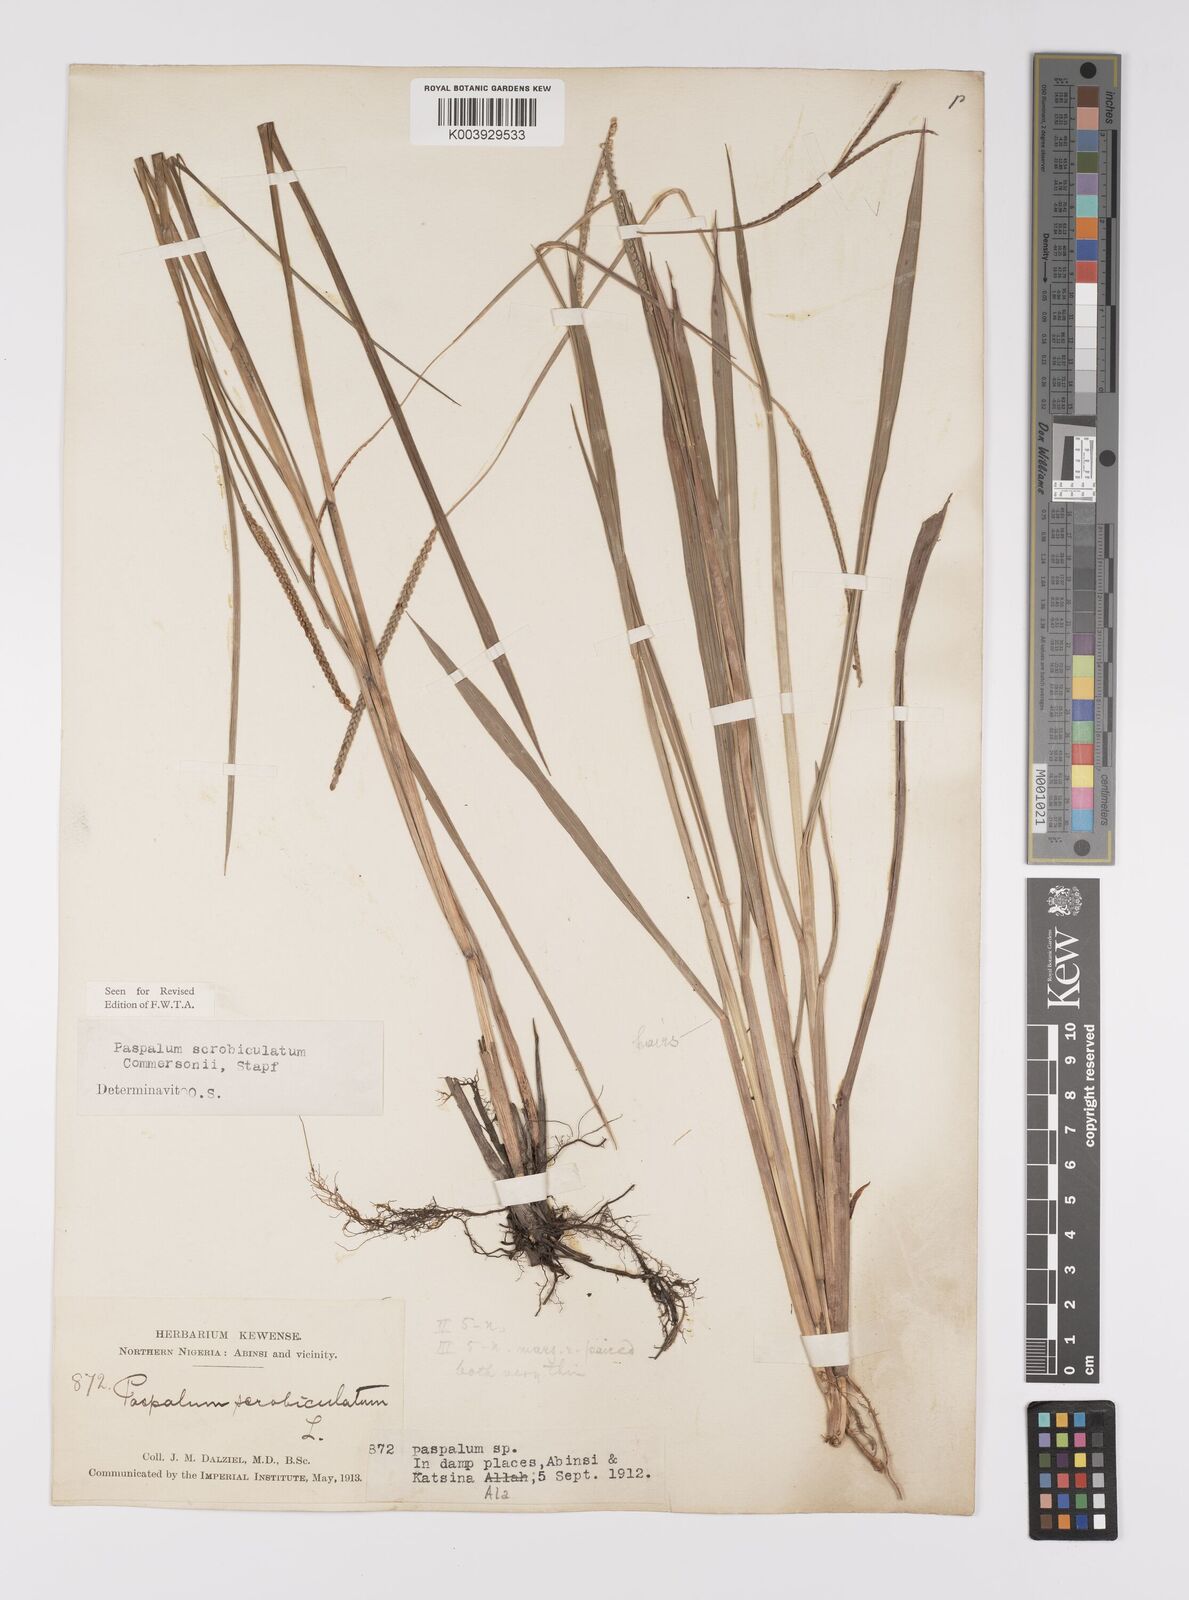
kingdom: Plantae
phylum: Tracheophyta
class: Liliopsida
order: Poales
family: Poaceae
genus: Paspalum
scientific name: Paspalum scrobiculatum
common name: Kodo millet
